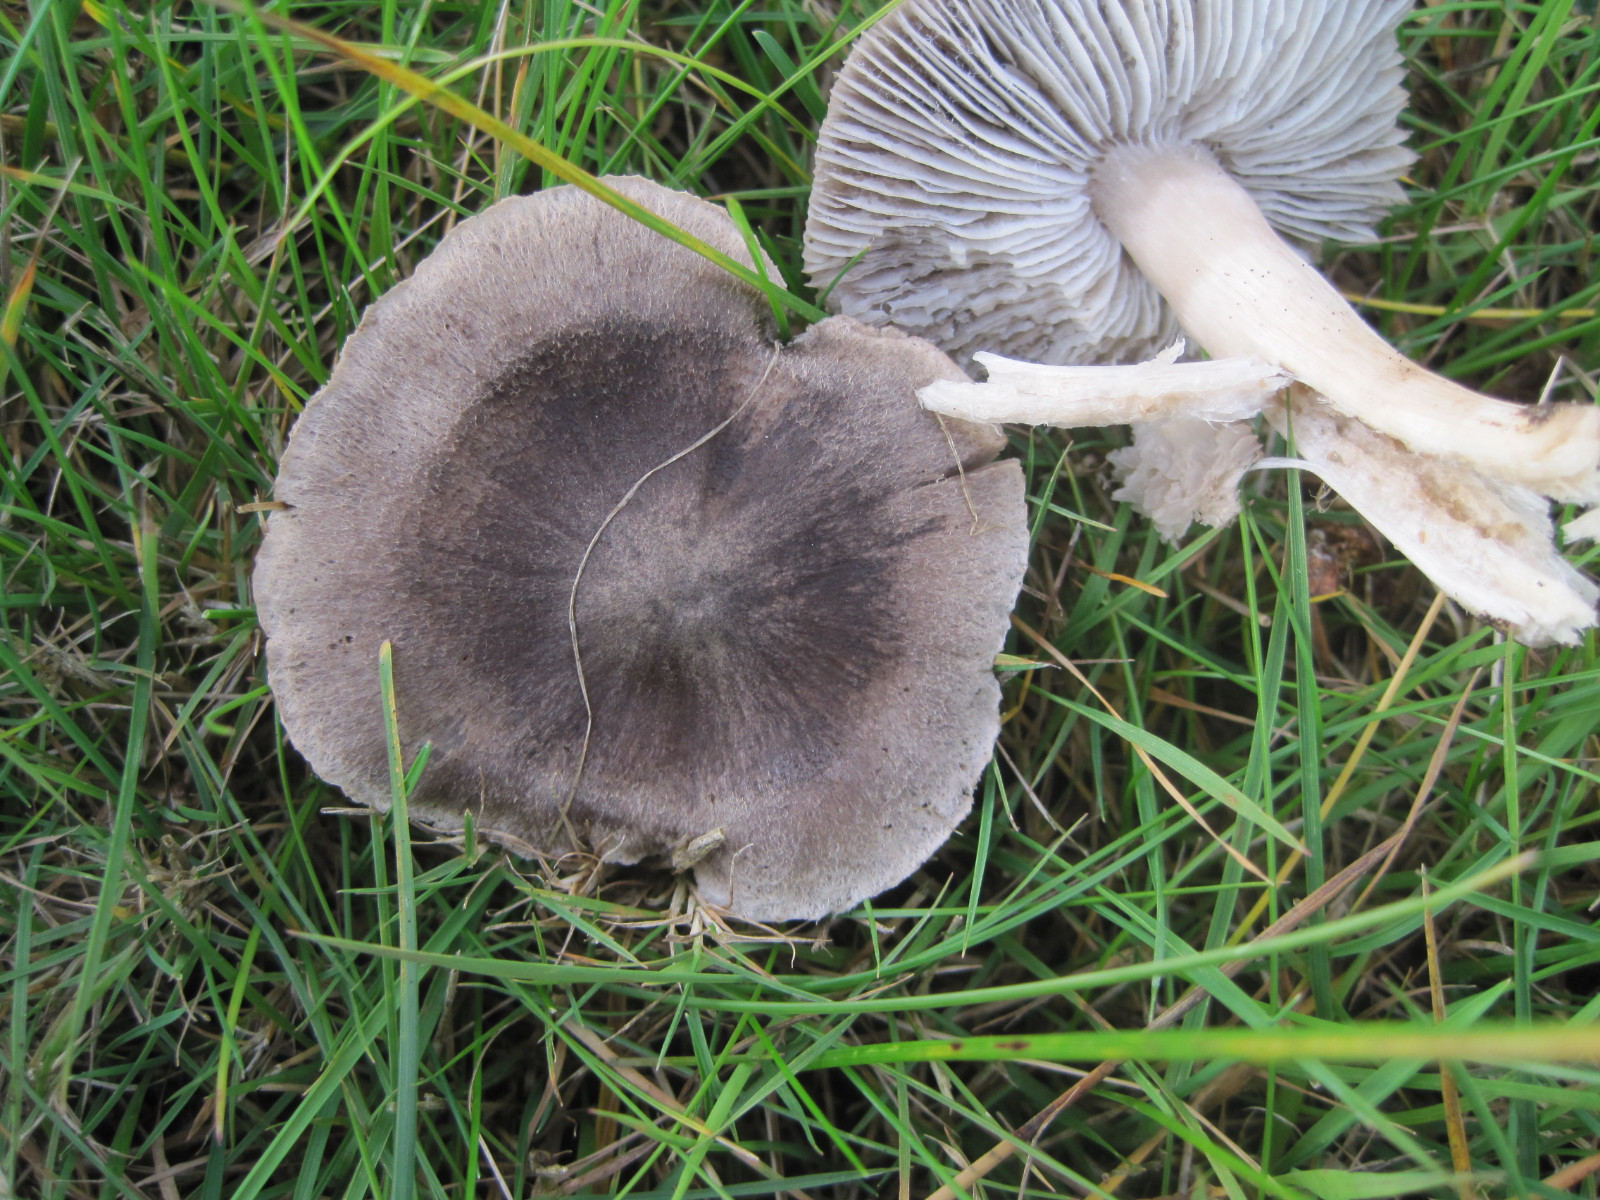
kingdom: Fungi
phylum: Basidiomycota
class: Agaricomycetes
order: Agaricales
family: Tricholomataceae
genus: Tricholoma
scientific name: Tricholoma terreum
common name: jordfarvet ridderhat
